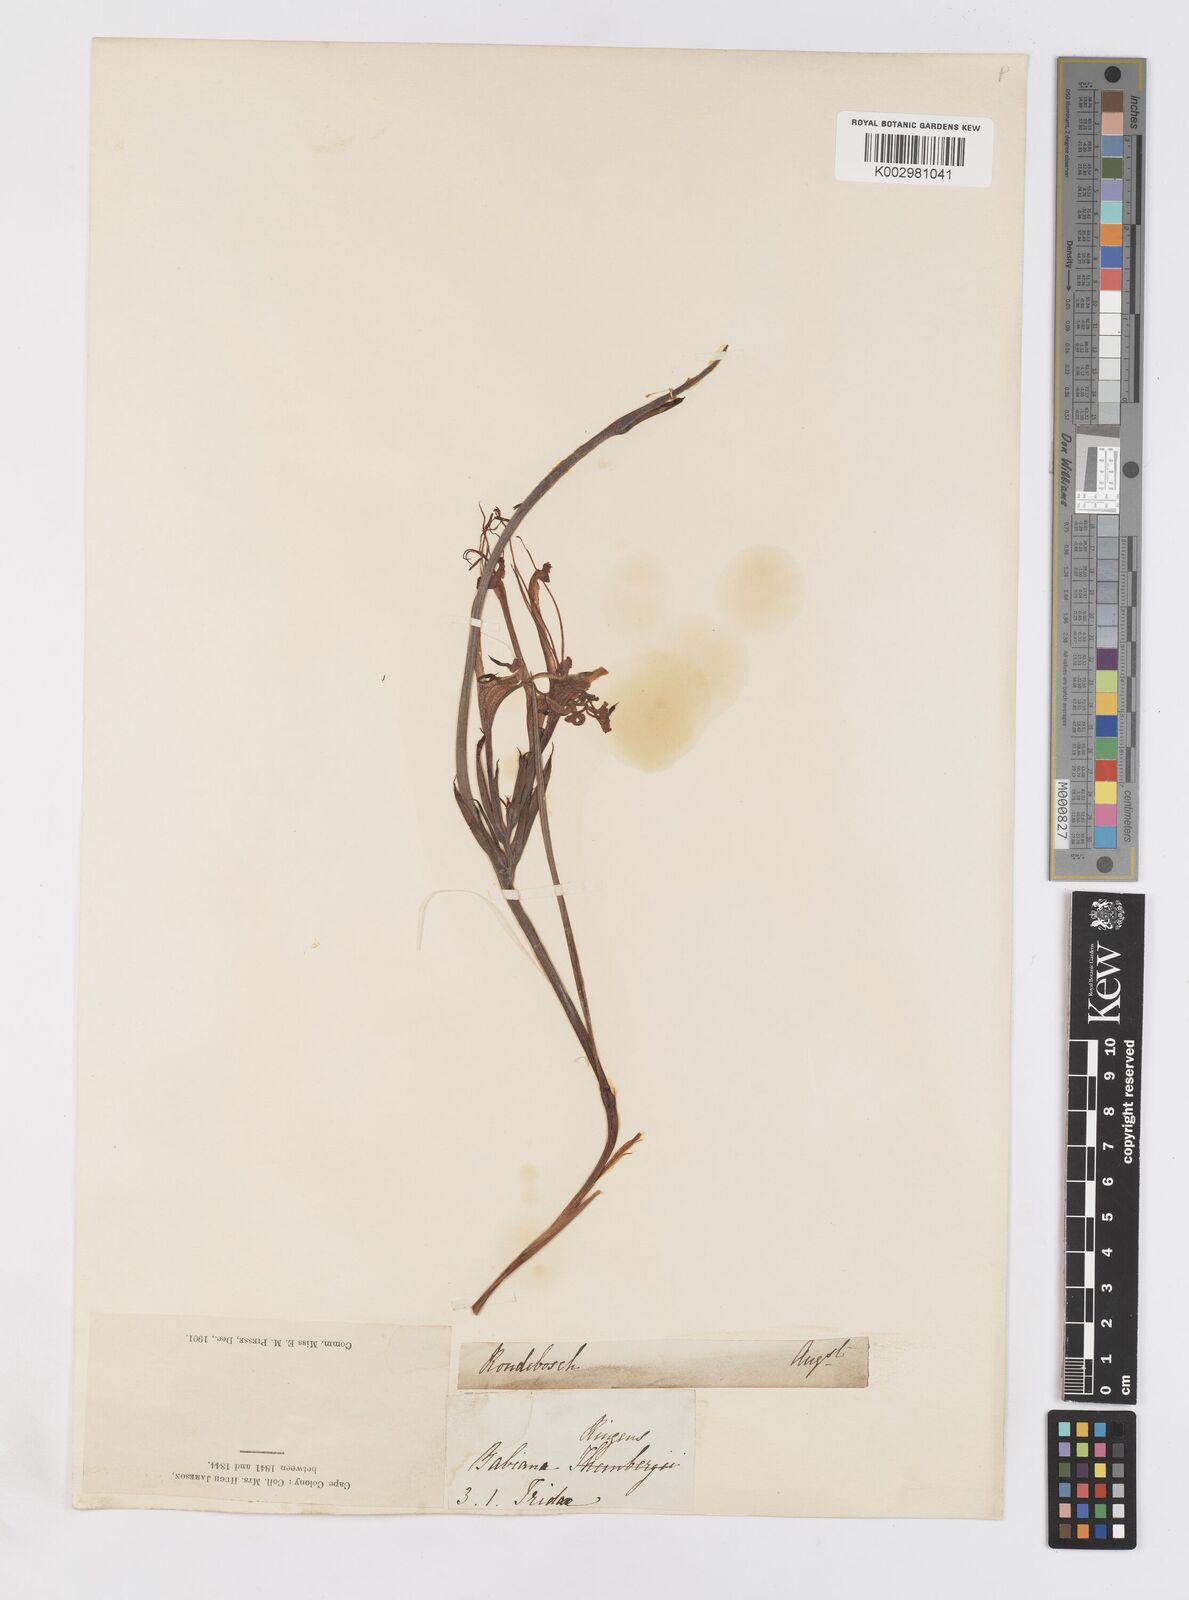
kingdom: Plantae
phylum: Tracheophyta
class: Liliopsida
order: Asparagales
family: Iridaceae
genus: Babiana
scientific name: Babiana ringens
